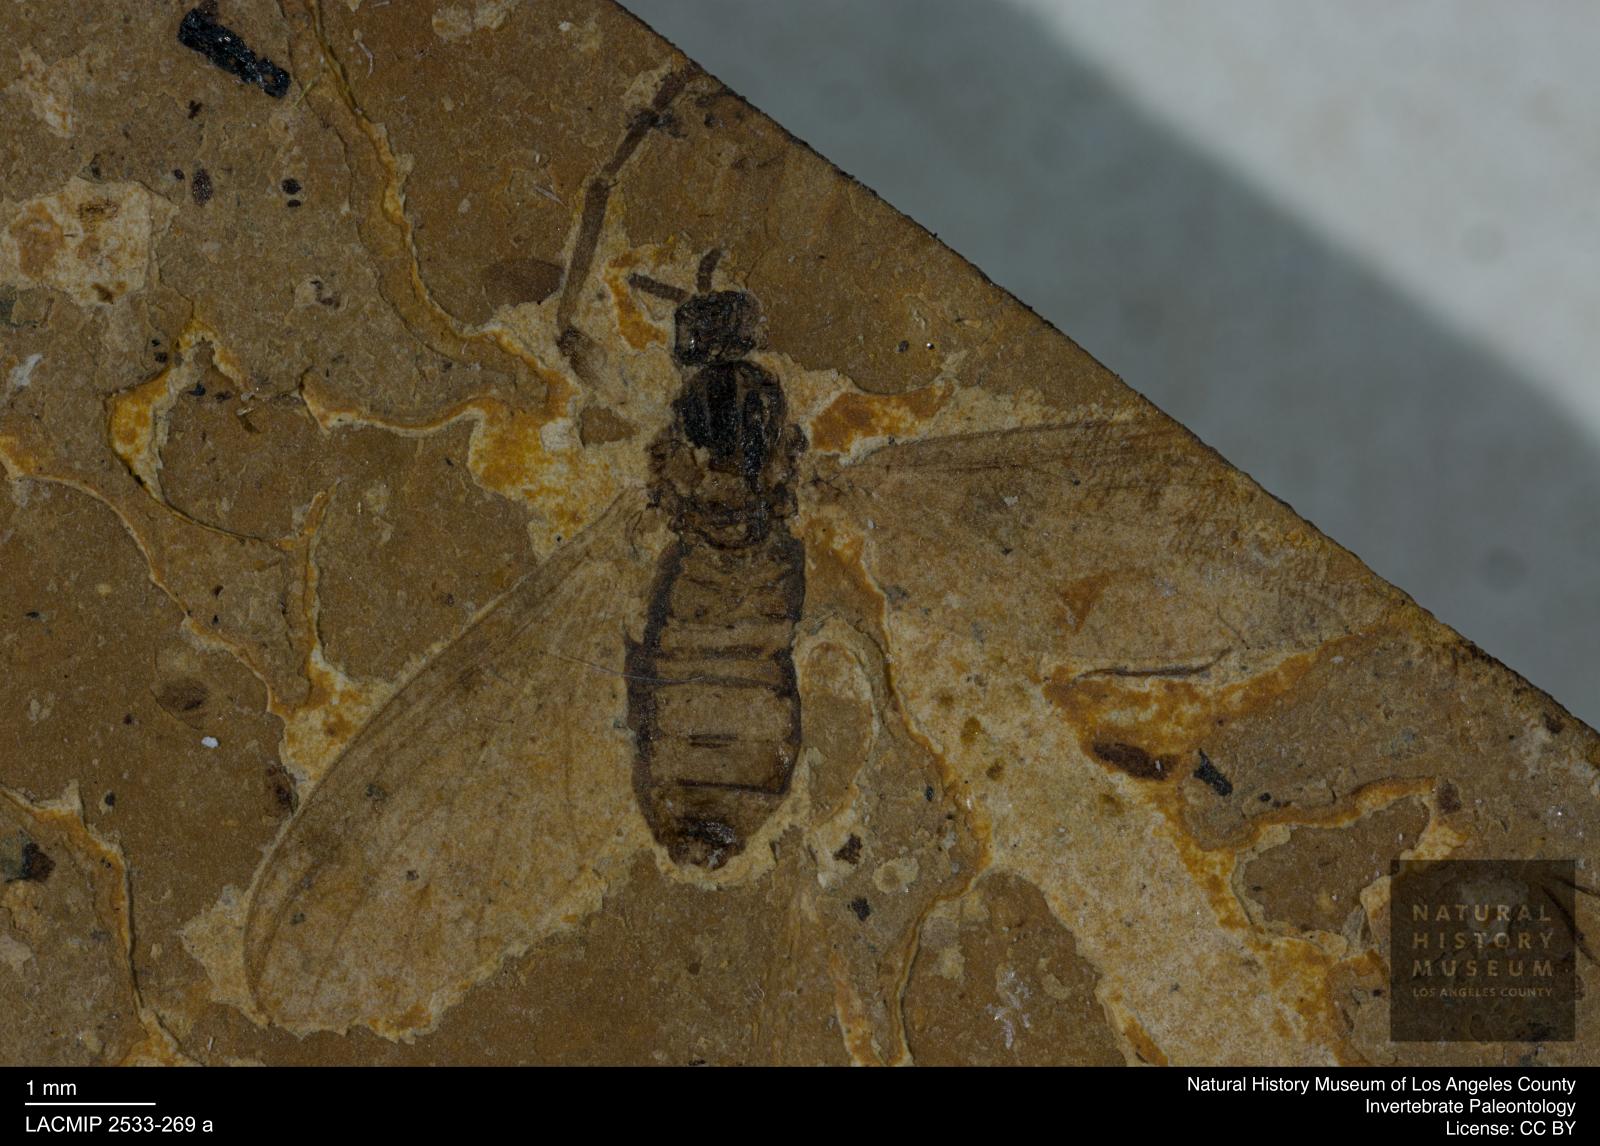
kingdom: Animalia
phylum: Arthropoda
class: Insecta
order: Diptera
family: Bibionidae
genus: Plecia
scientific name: Plecia exigua
